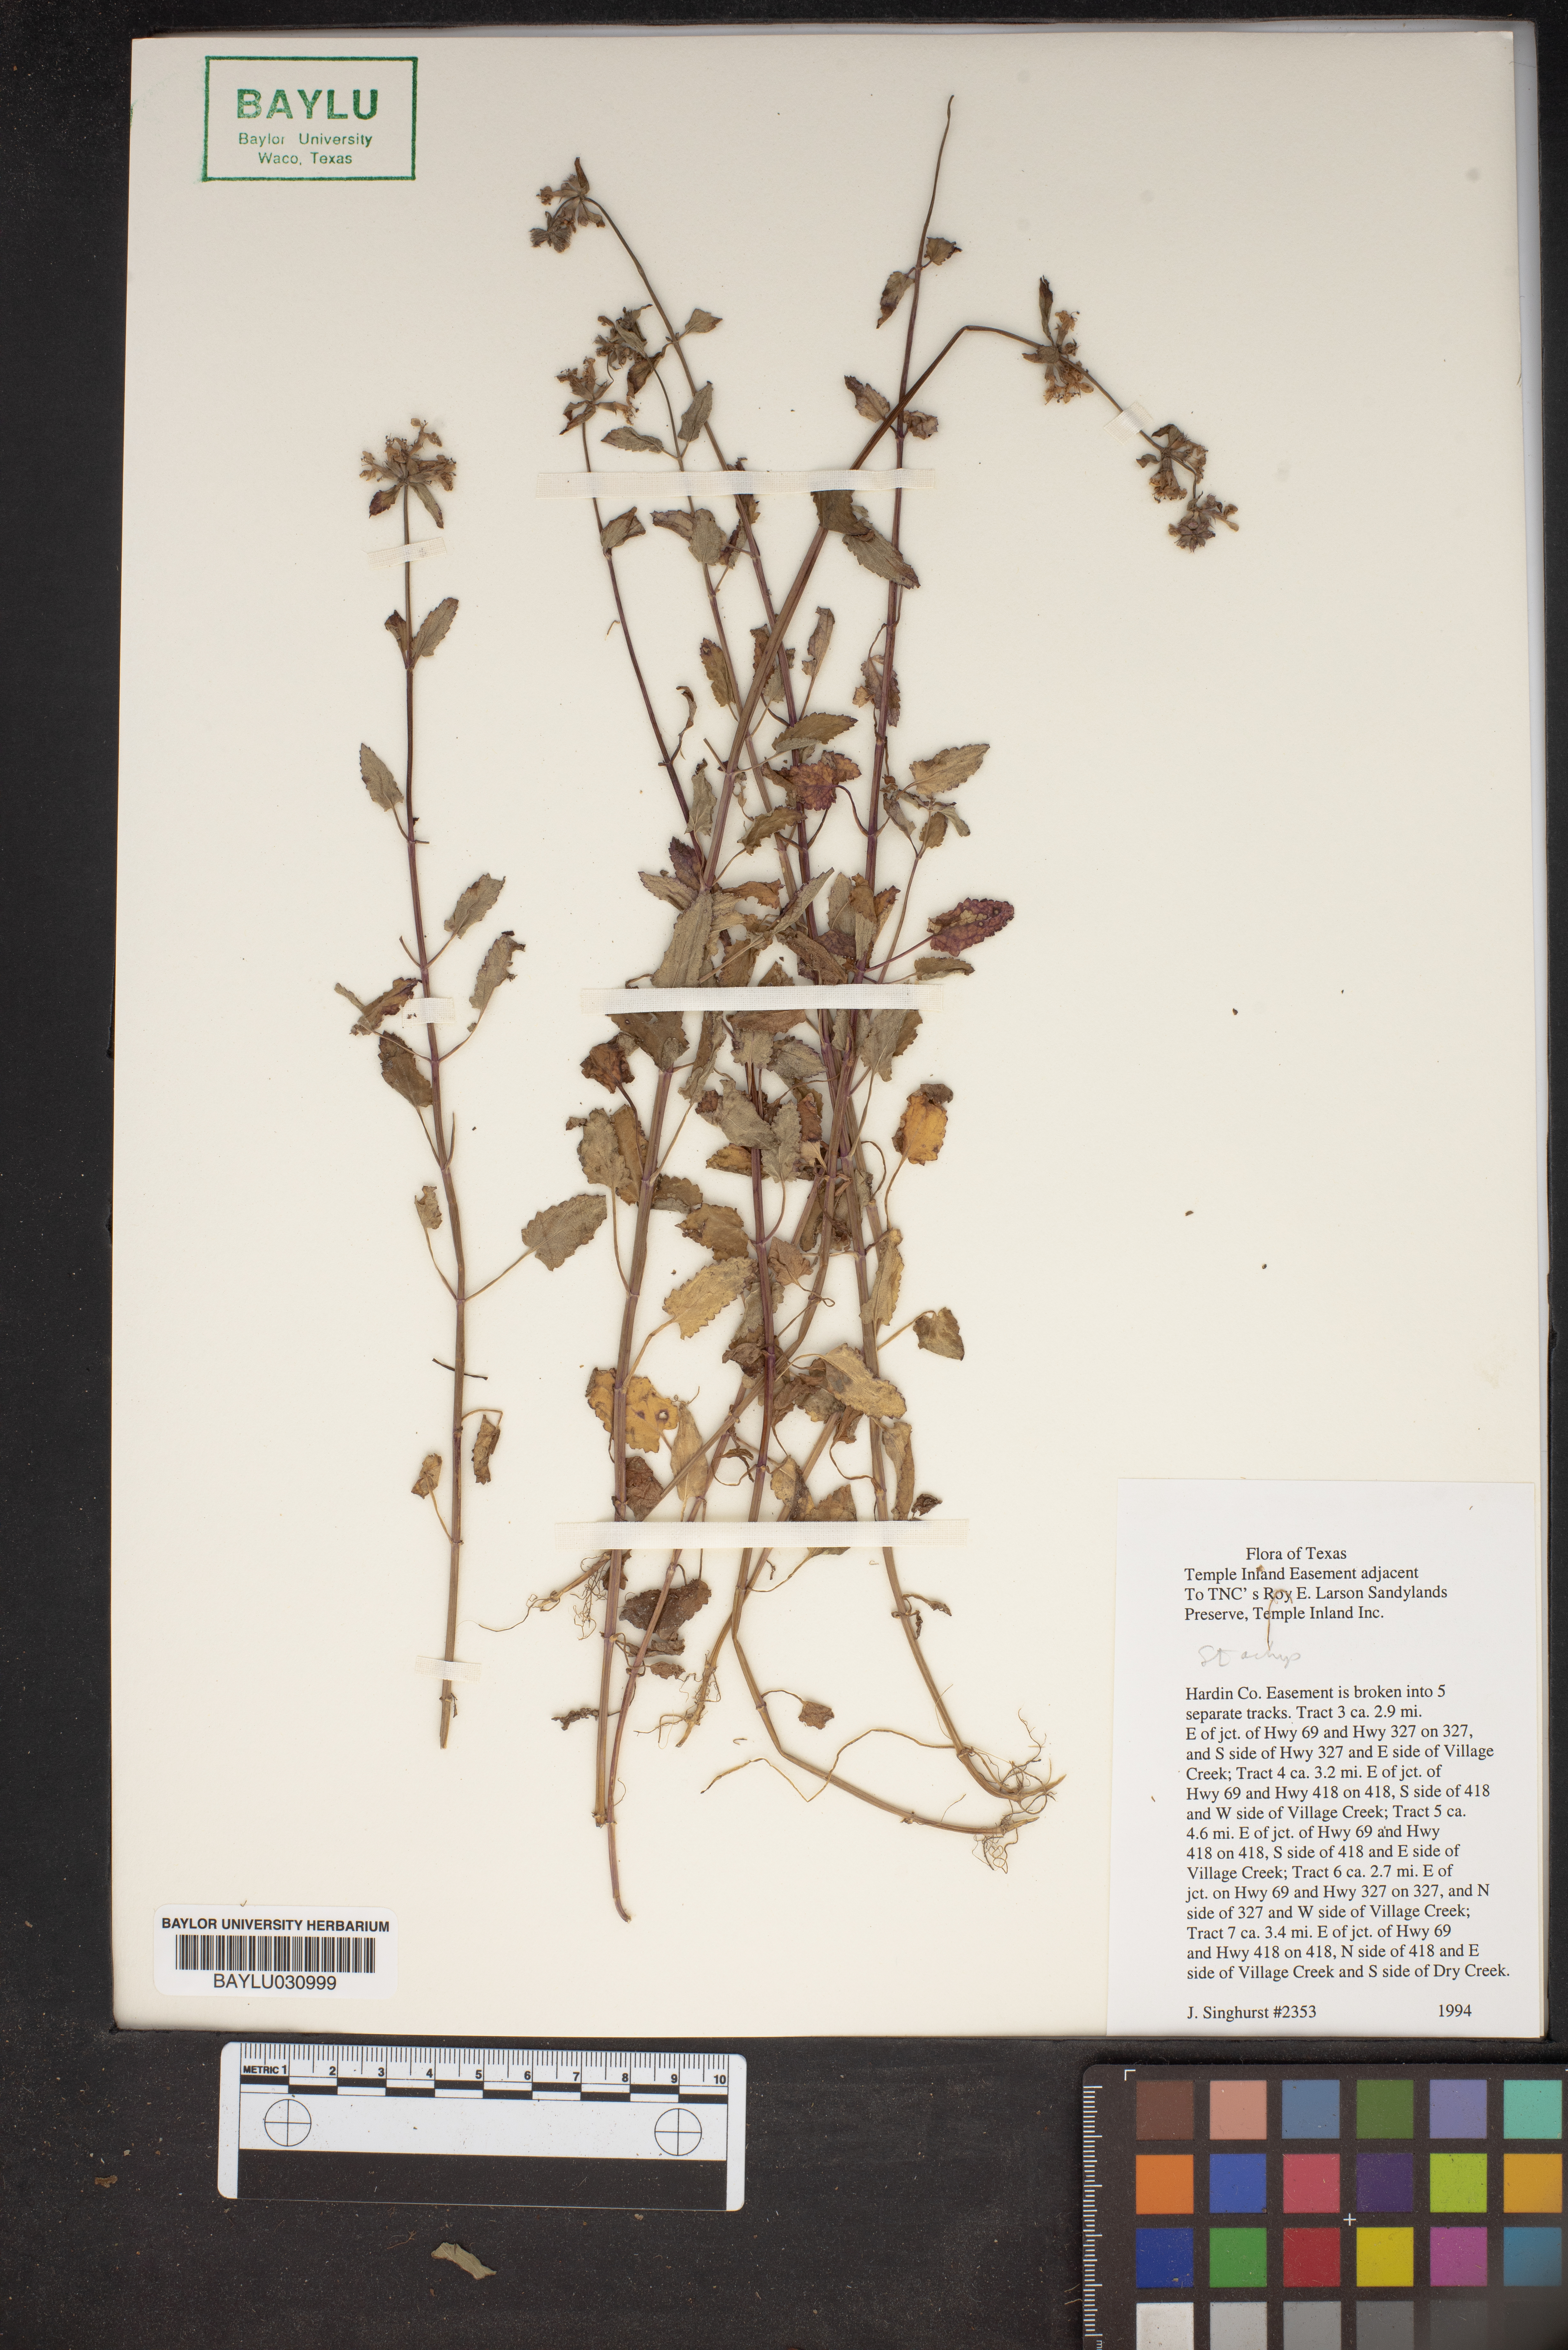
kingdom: Plantae
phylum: Tracheophyta
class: Magnoliopsida
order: Lamiales
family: Lamiaceae
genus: Stachys
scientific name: Stachys
